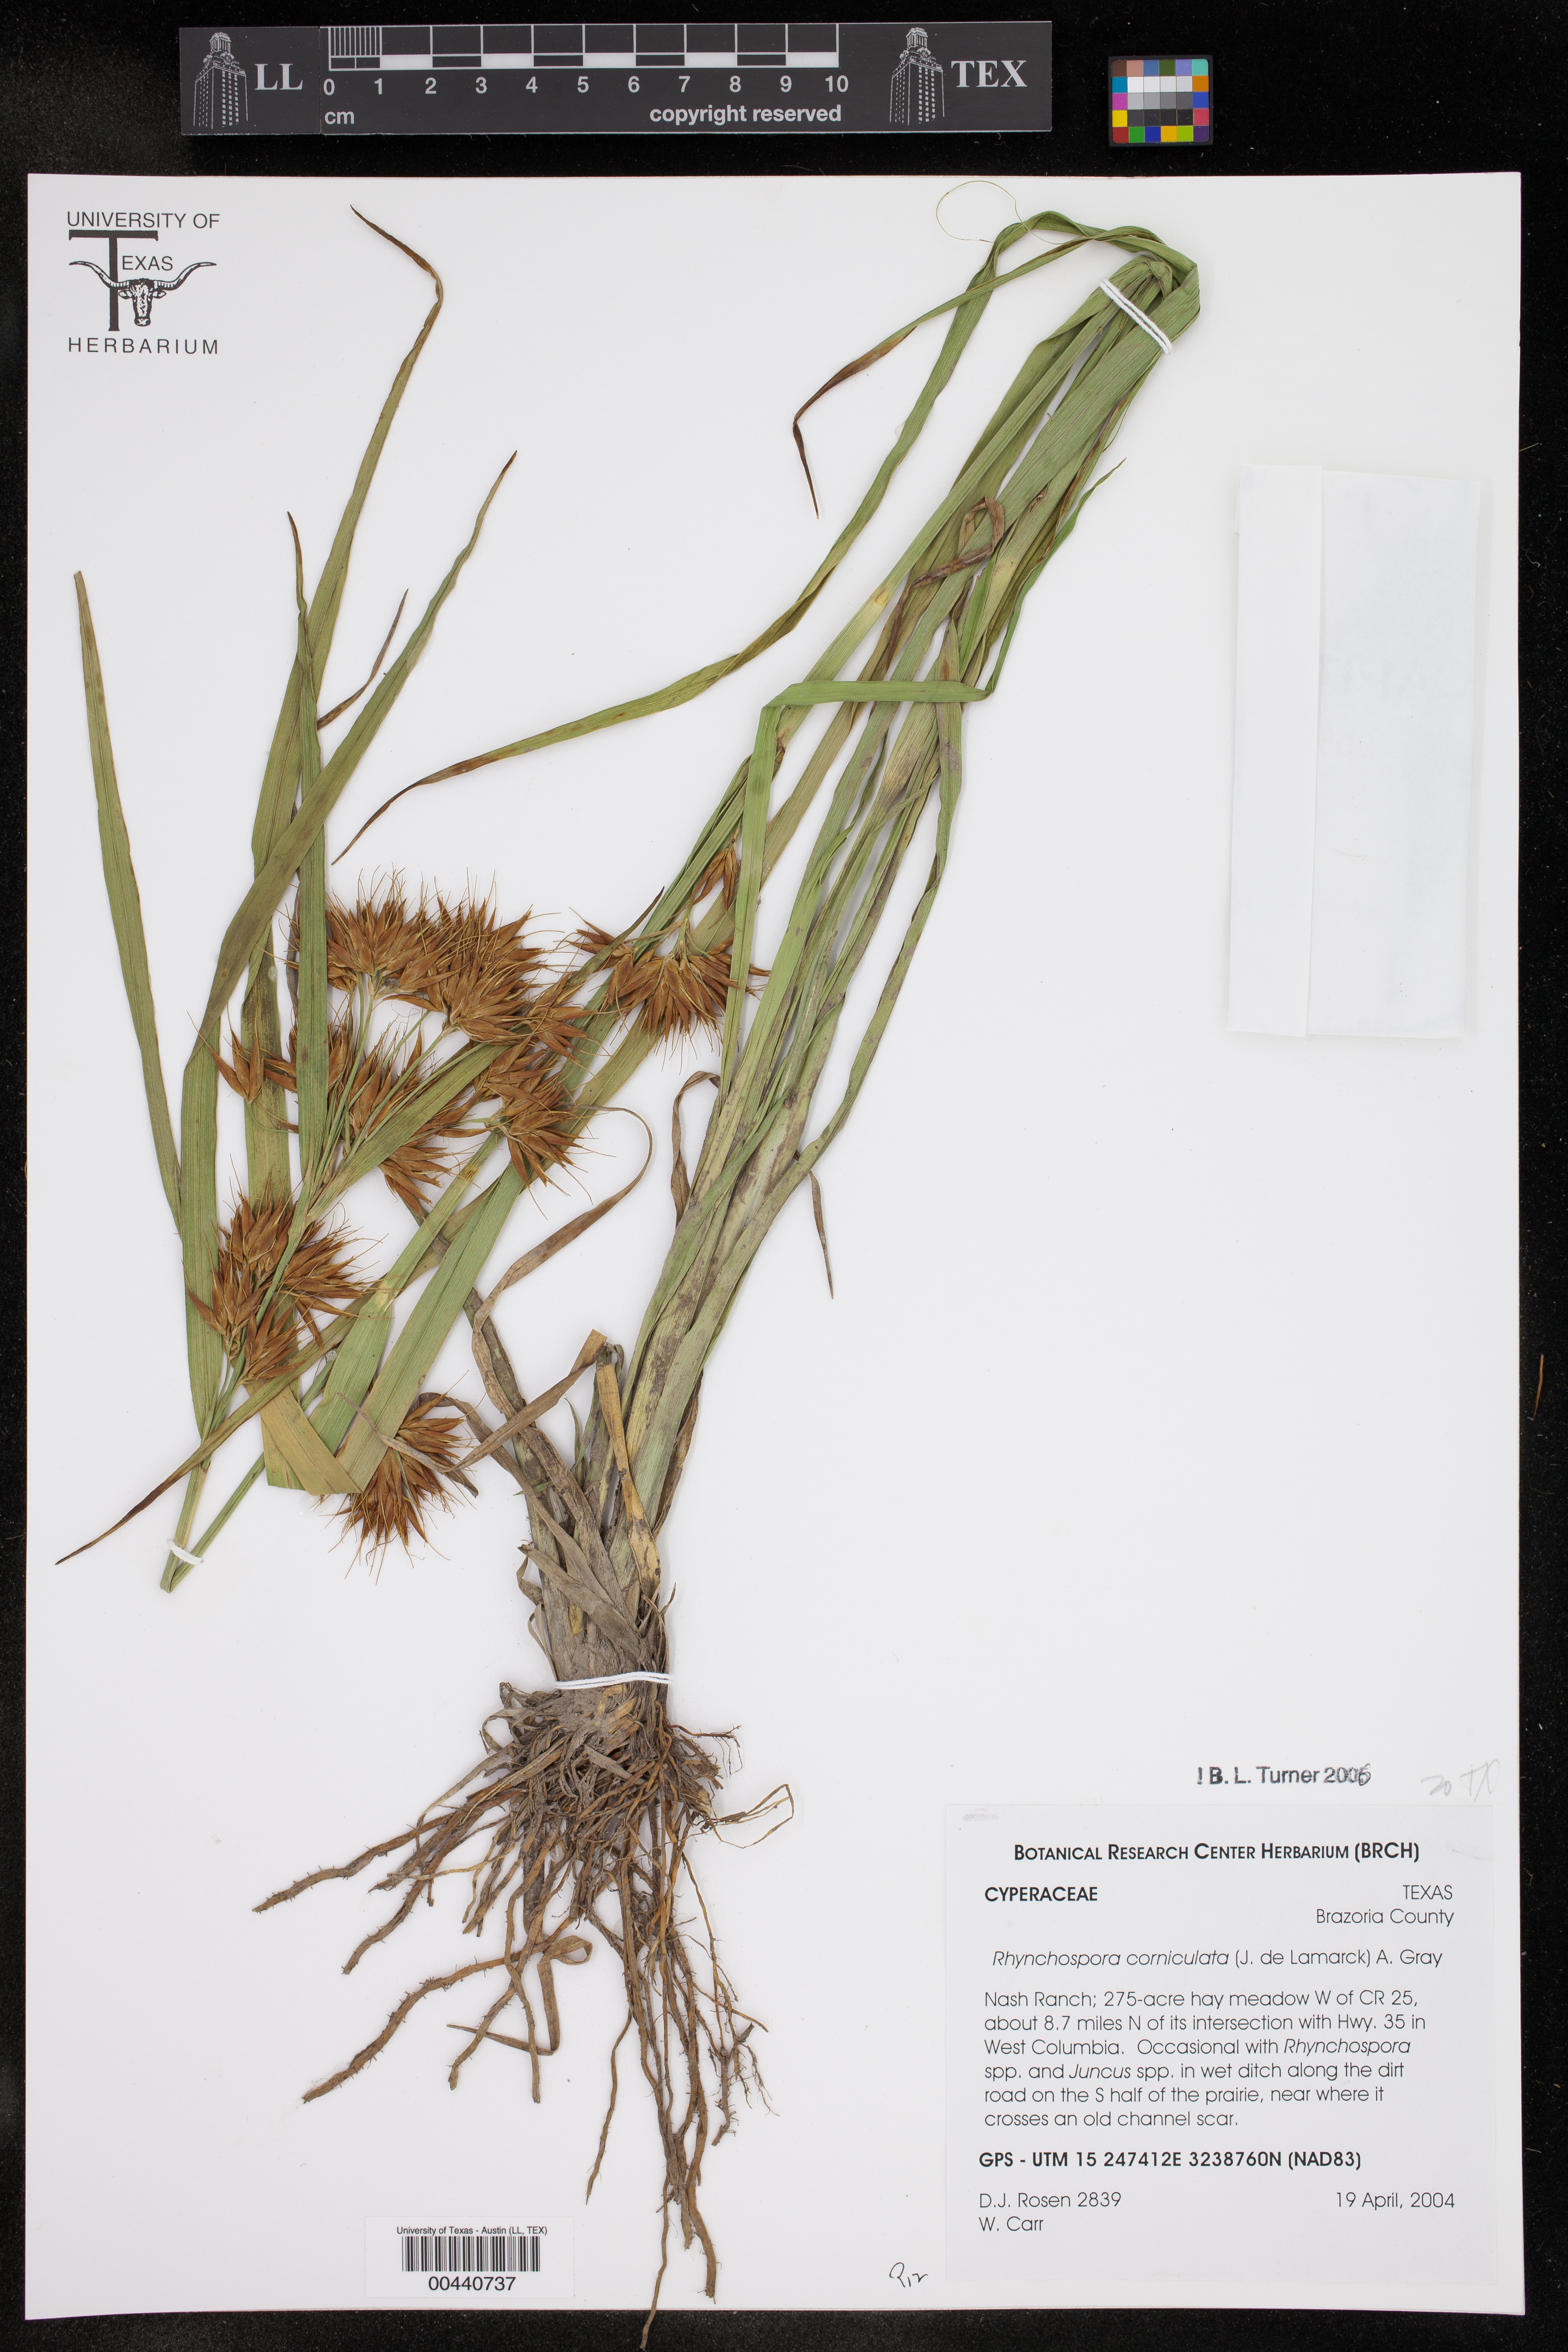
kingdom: Plantae
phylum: Tracheophyta
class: Liliopsida
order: Poales
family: Cyperaceae
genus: Rhynchospora
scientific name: Rhynchospora corniculata
